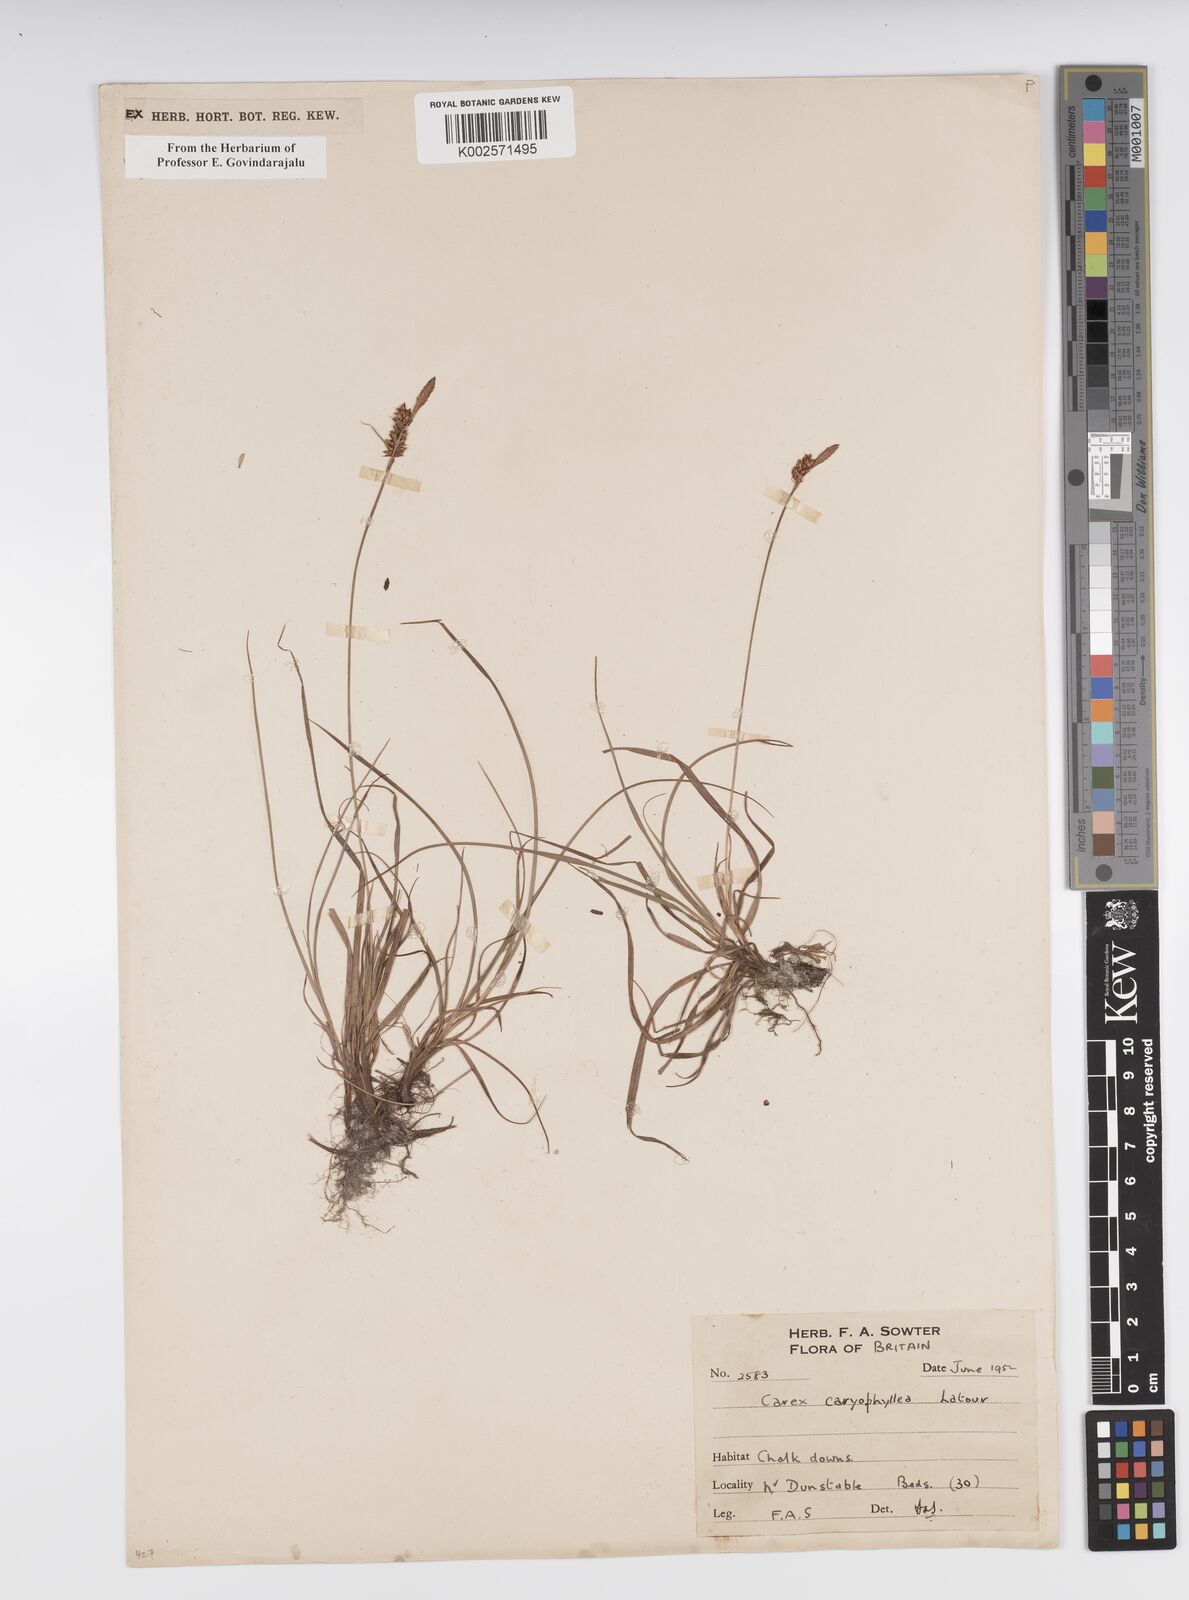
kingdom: Plantae
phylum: Tracheophyta
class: Liliopsida
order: Poales
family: Cyperaceae
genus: Carex
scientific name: Carex caryophyllea
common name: Spring sedge
